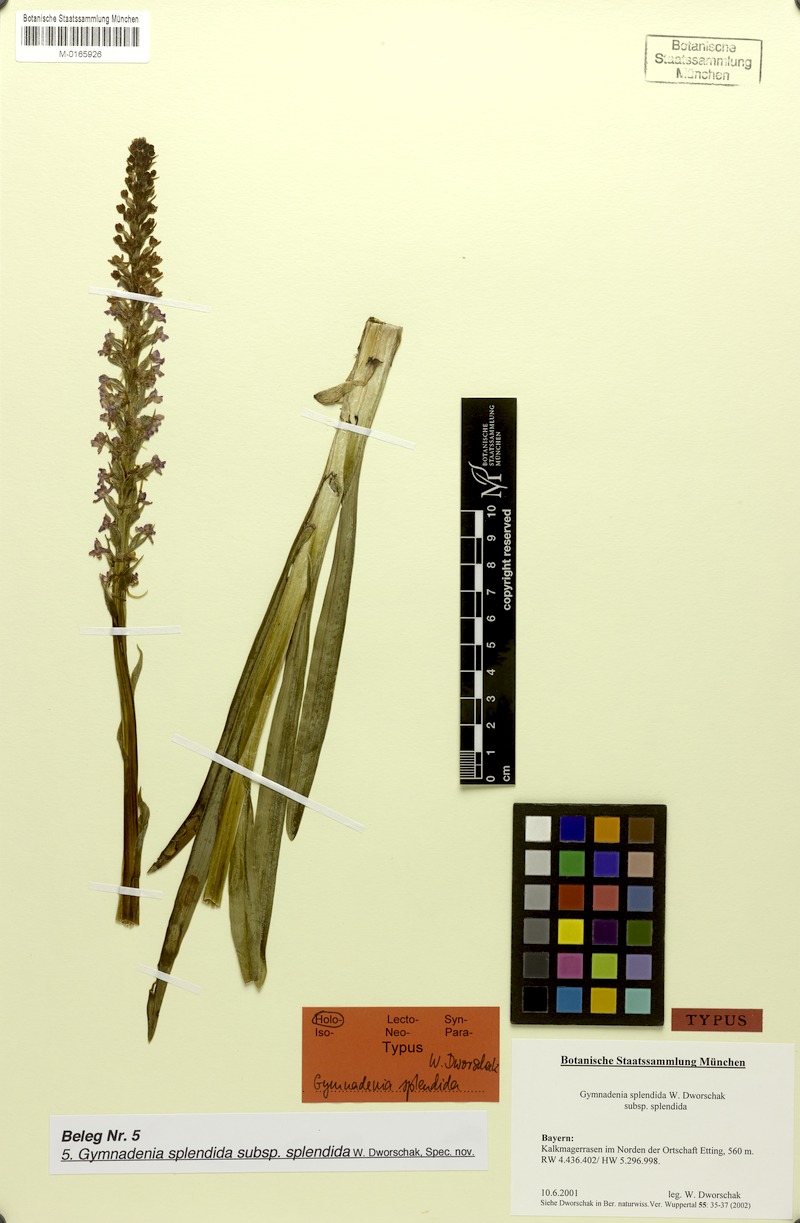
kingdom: Plantae
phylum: Tracheophyta
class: Liliopsida
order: Asparagales
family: Orchidaceae
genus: Gymnadenia
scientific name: Gymnadenia conopsea
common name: Fragrant orchid
